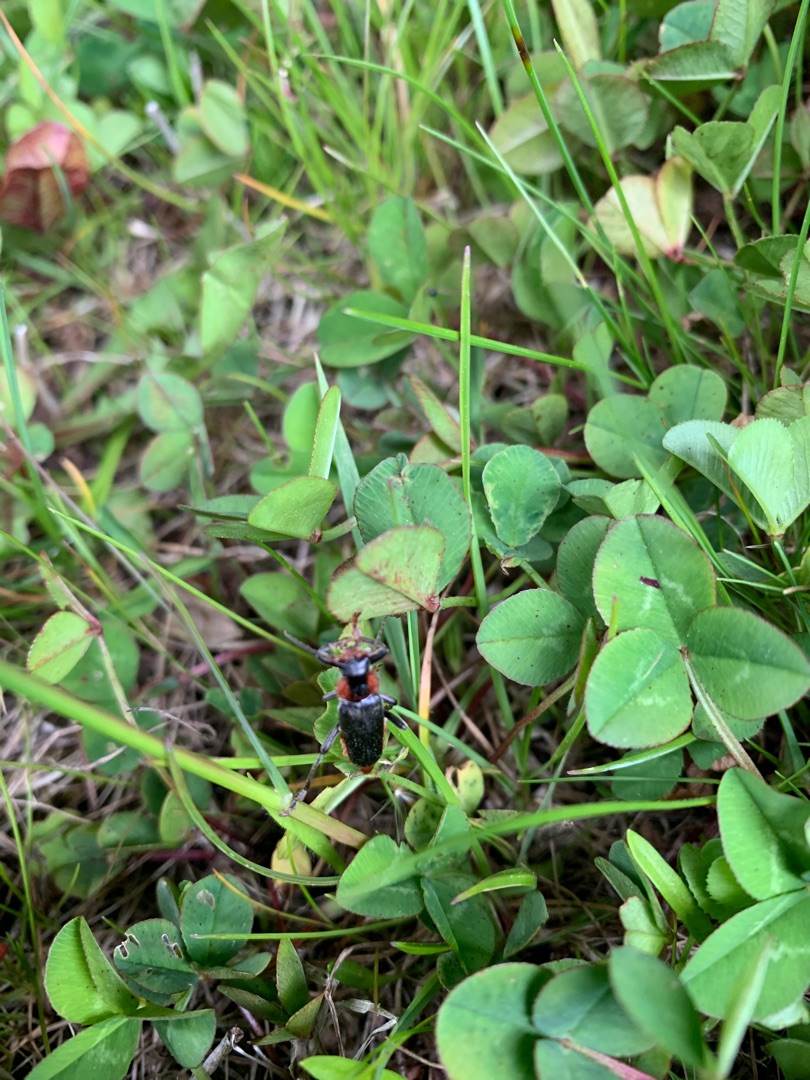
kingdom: Animalia
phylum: Arthropoda
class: Insecta
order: Coleoptera
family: Cantharidae
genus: Cantharis
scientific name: Cantharis fusca
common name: Stor blødvinge
